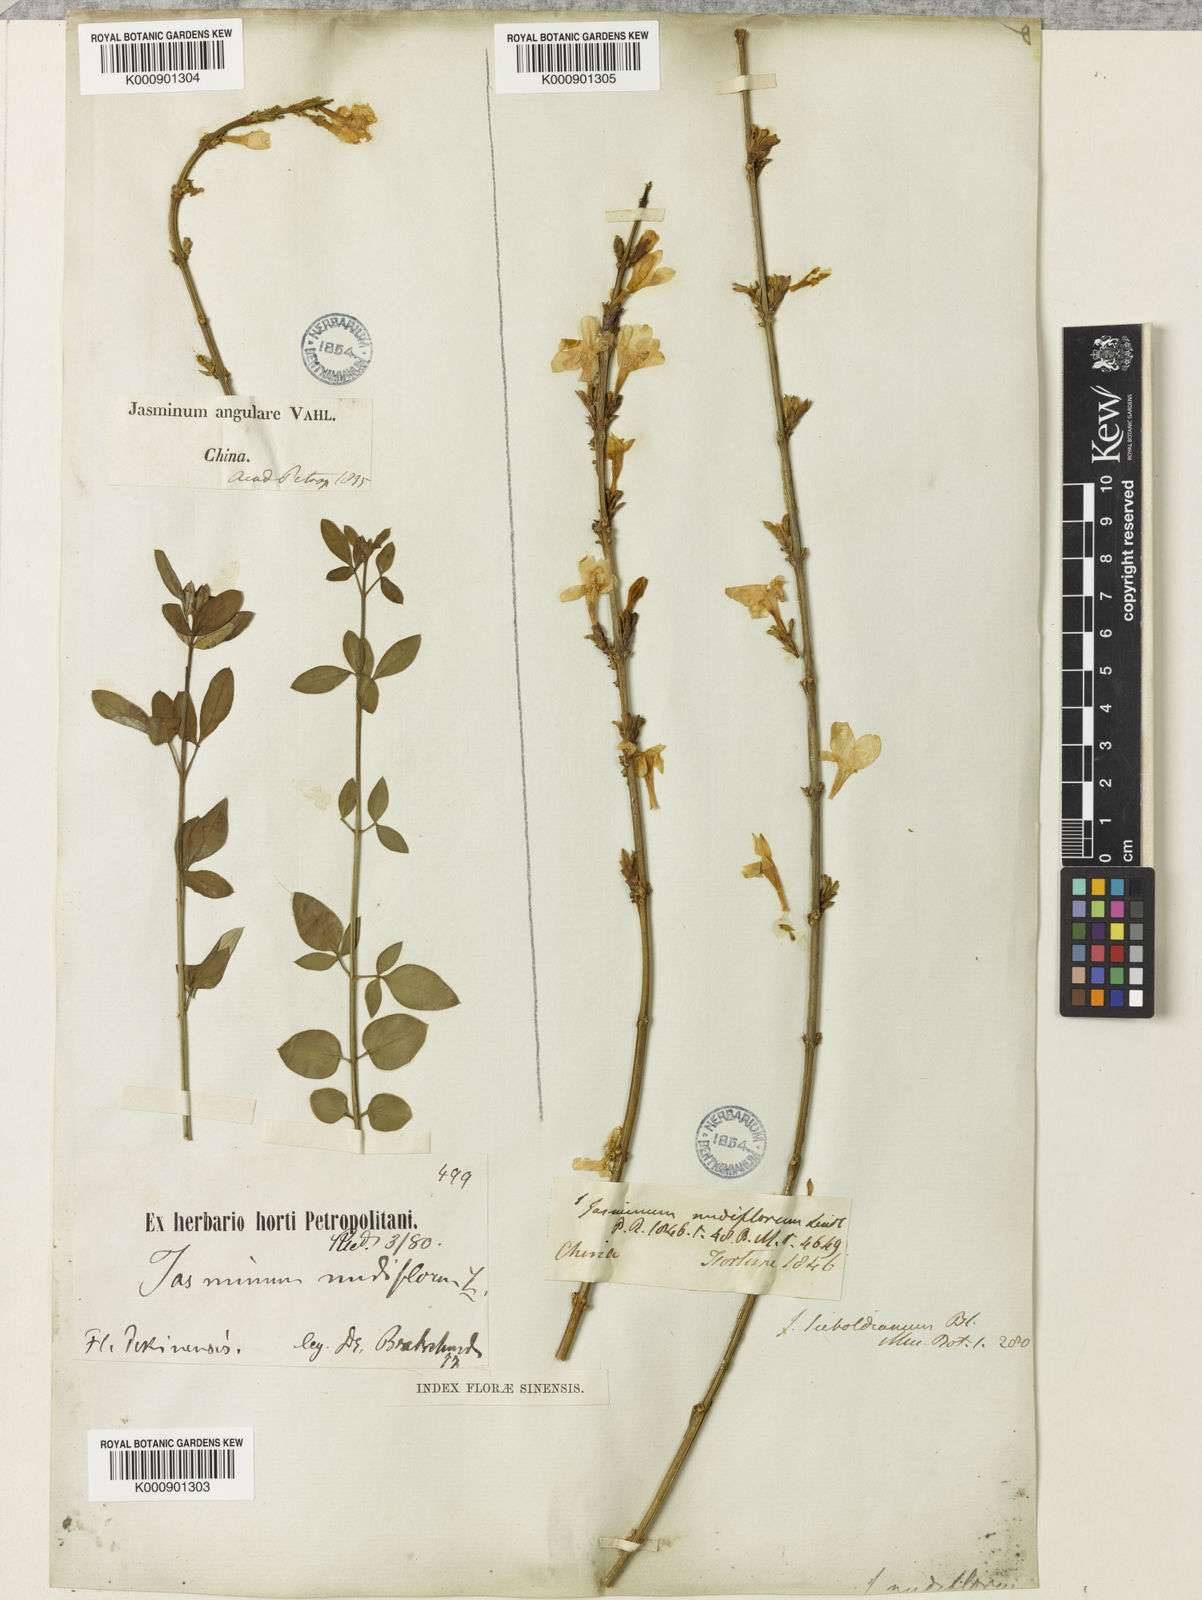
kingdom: Plantae
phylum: Tracheophyta
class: Magnoliopsida
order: Lamiales
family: Oleaceae
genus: Jasminum
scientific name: Jasminum nudiflorum
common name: Winter jasmine
